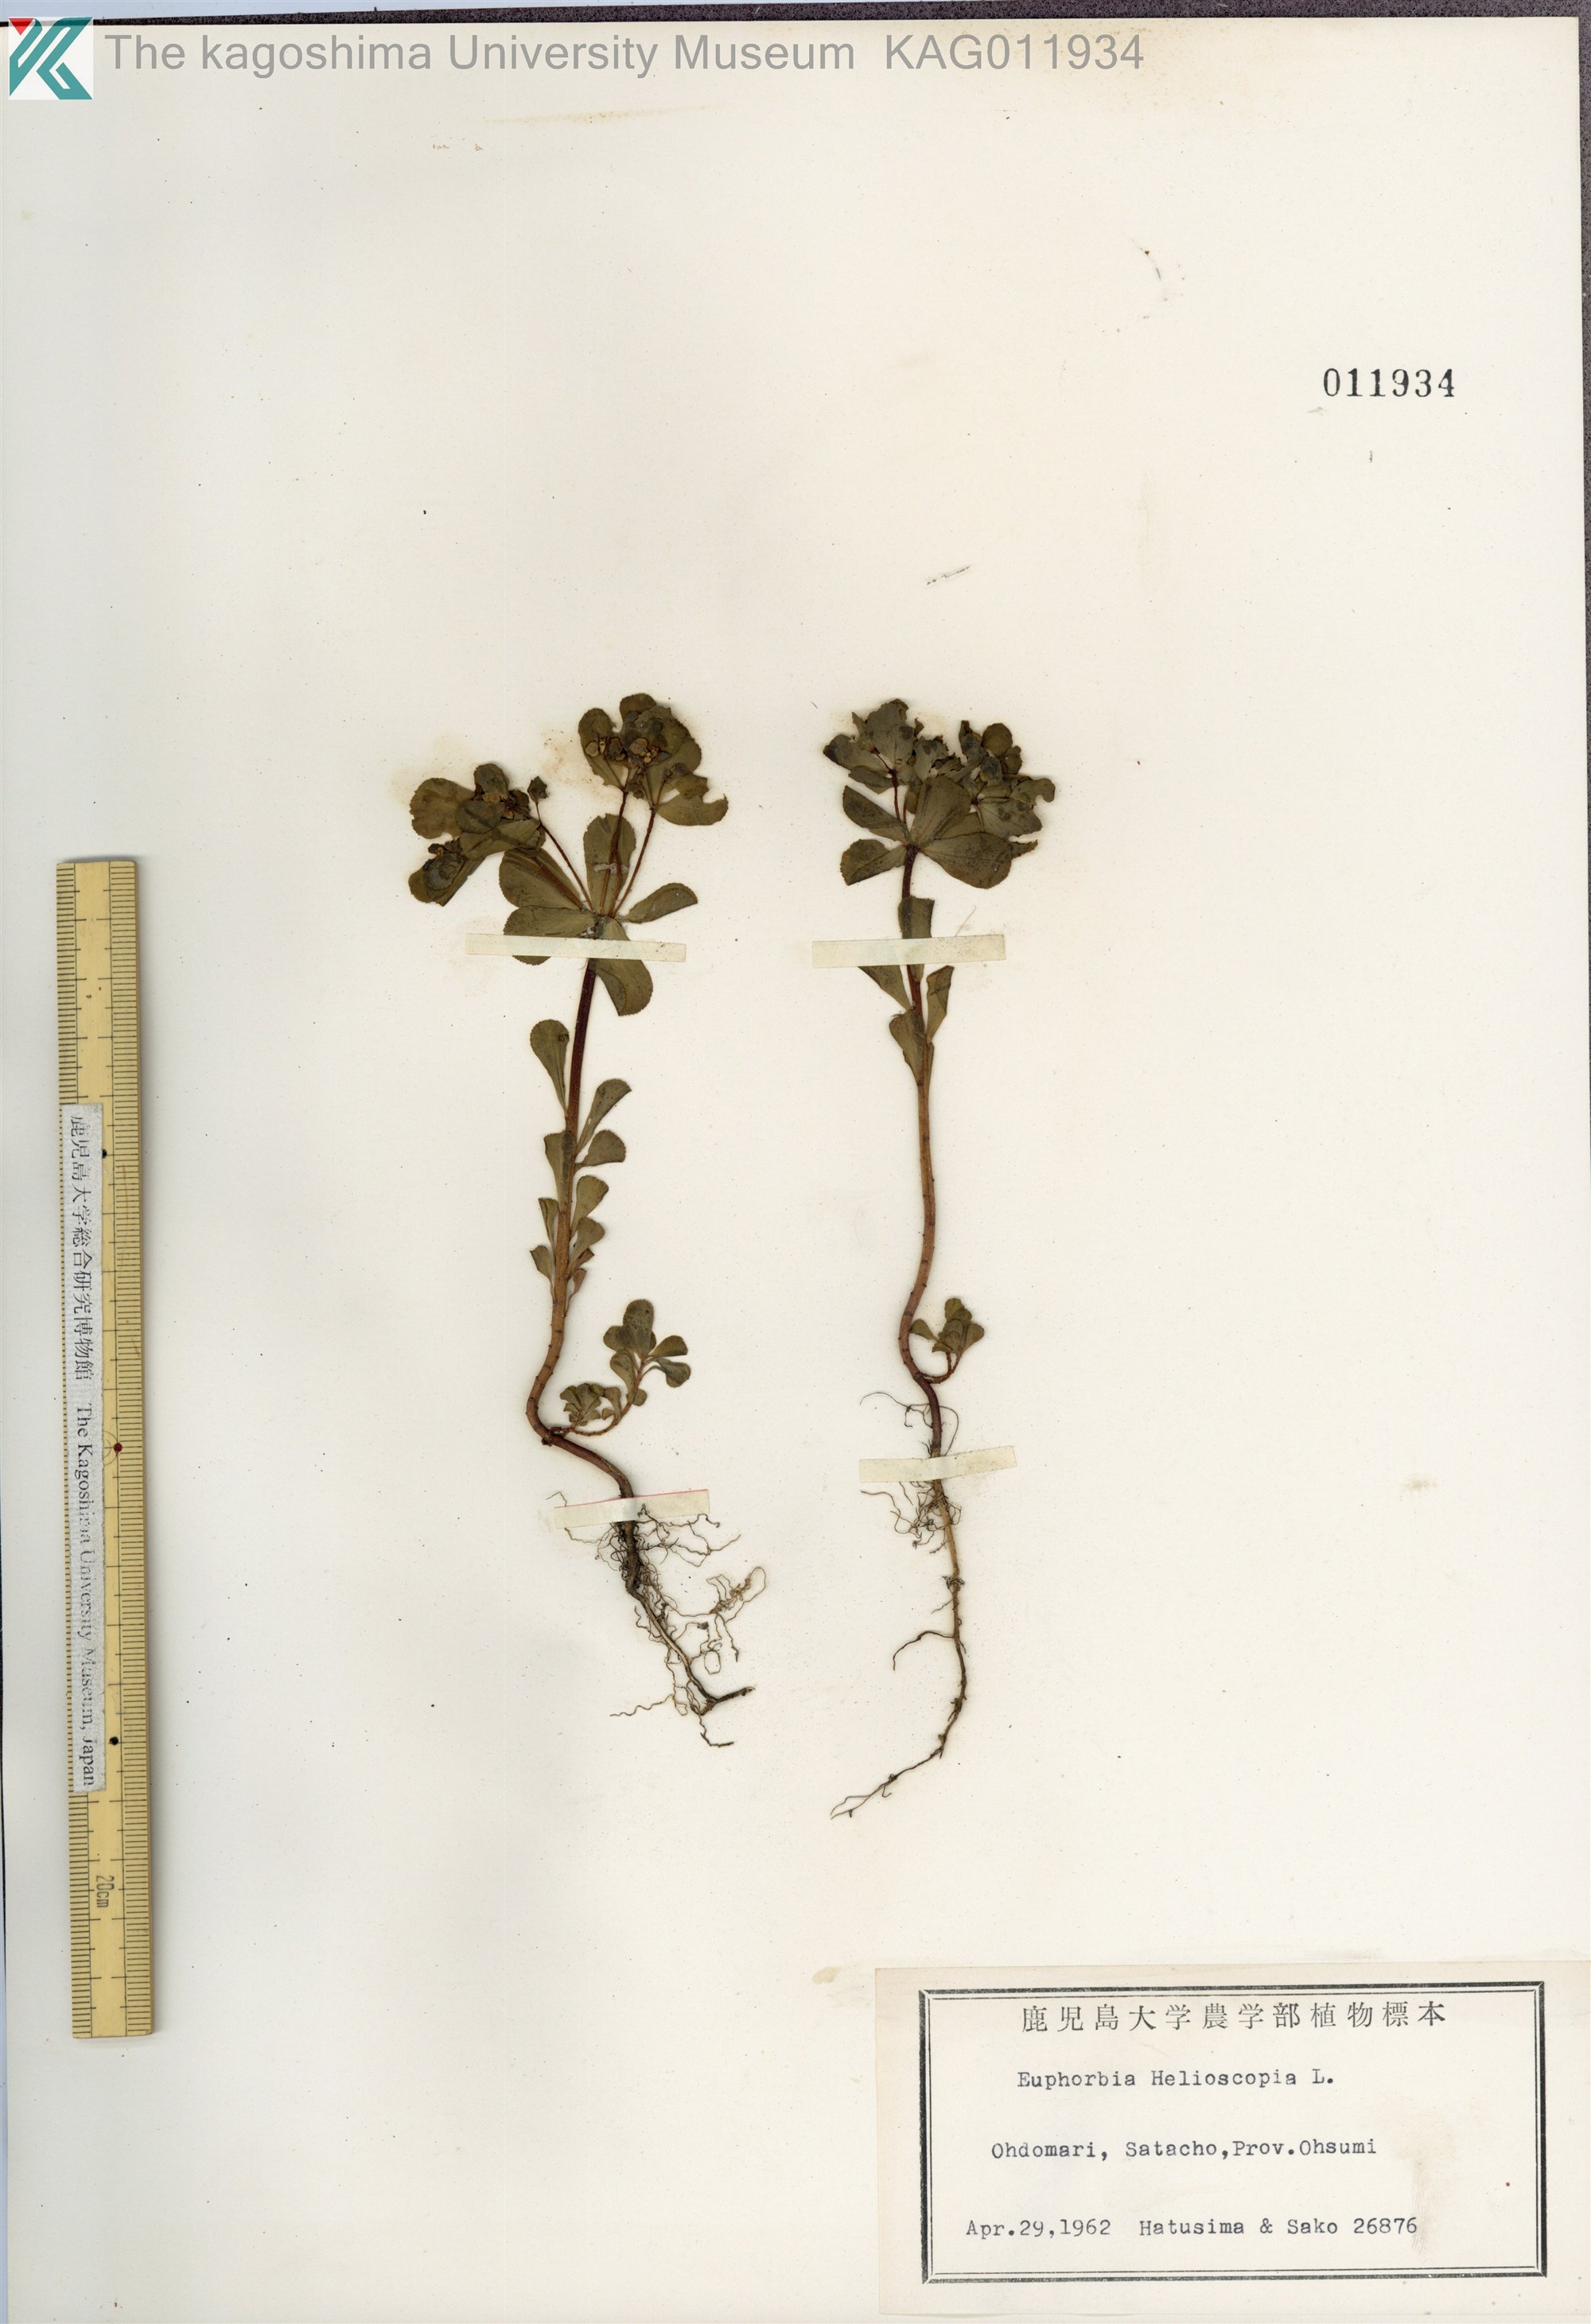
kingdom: Plantae
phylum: Tracheophyta
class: Magnoliopsida
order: Malpighiales
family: Euphorbiaceae
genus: Euphorbia
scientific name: Euphorbia helioscopia
